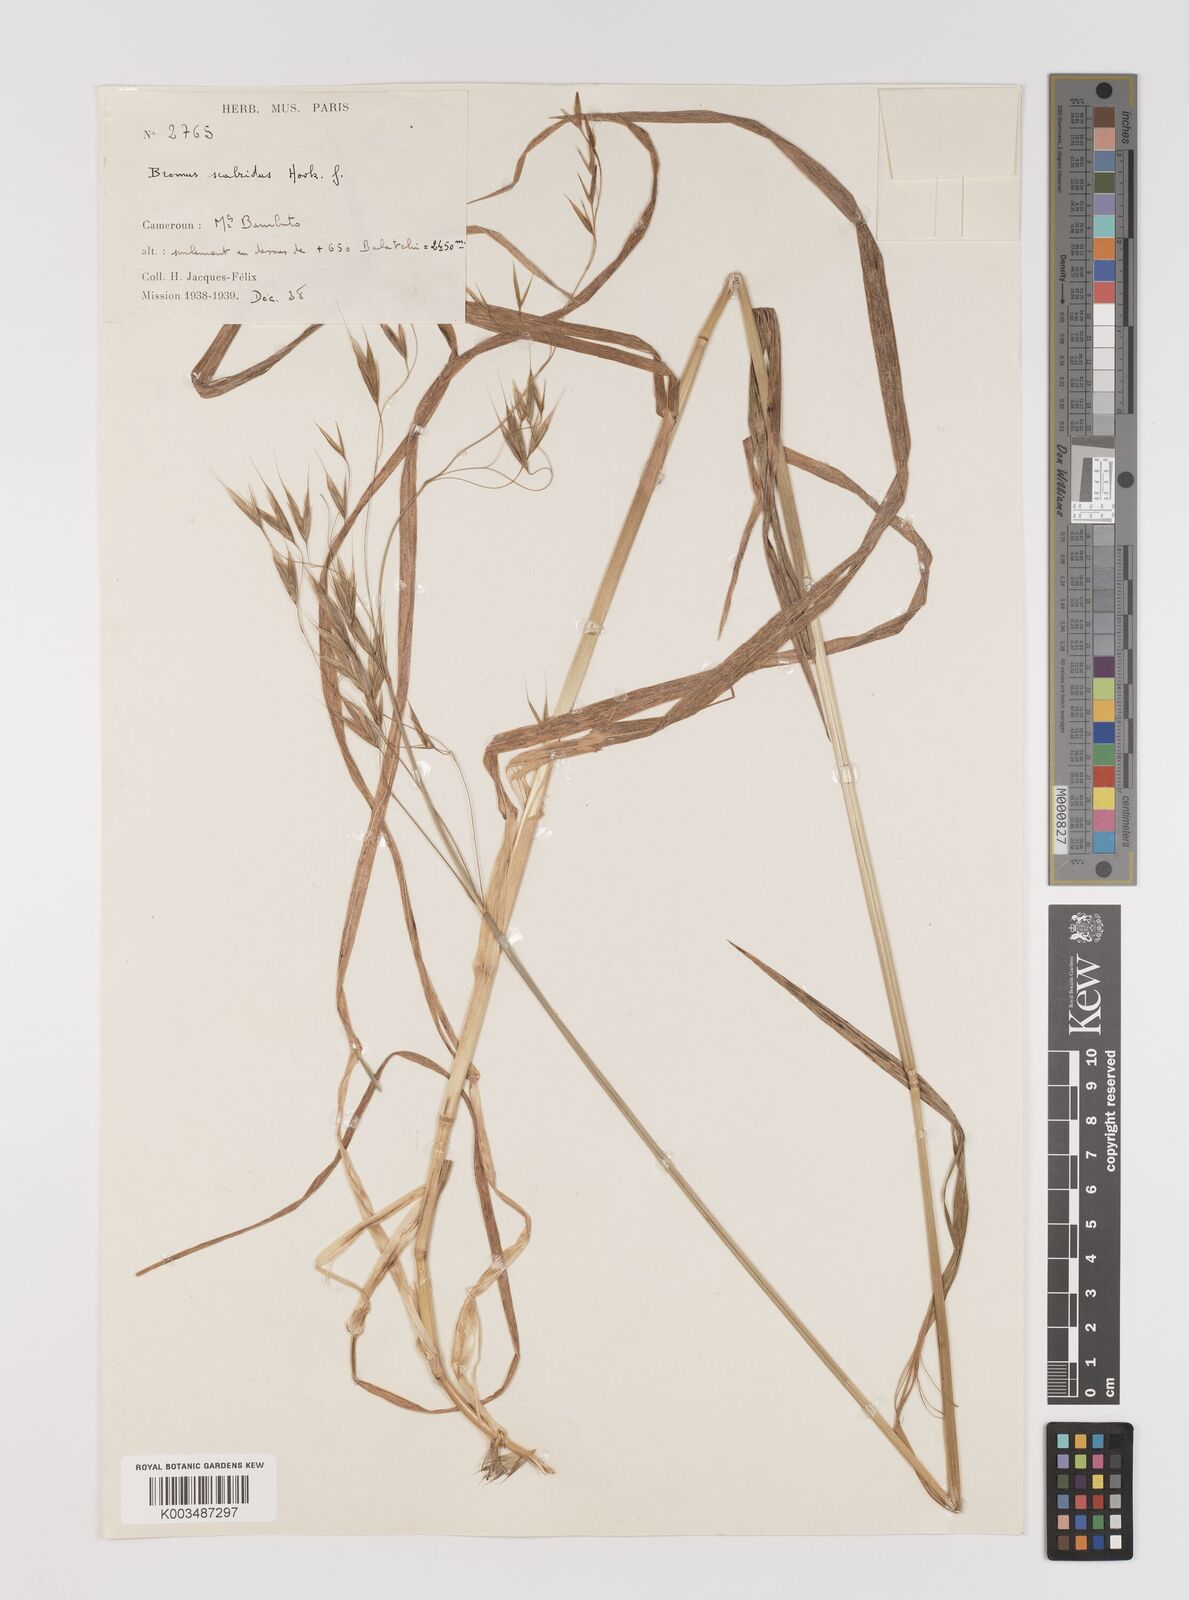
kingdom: Plantae
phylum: Tracheophyta
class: Liliopsida
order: Poales
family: Poaceae
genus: Bromus
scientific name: Bromus leptoclados
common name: Mountain bromegrass
